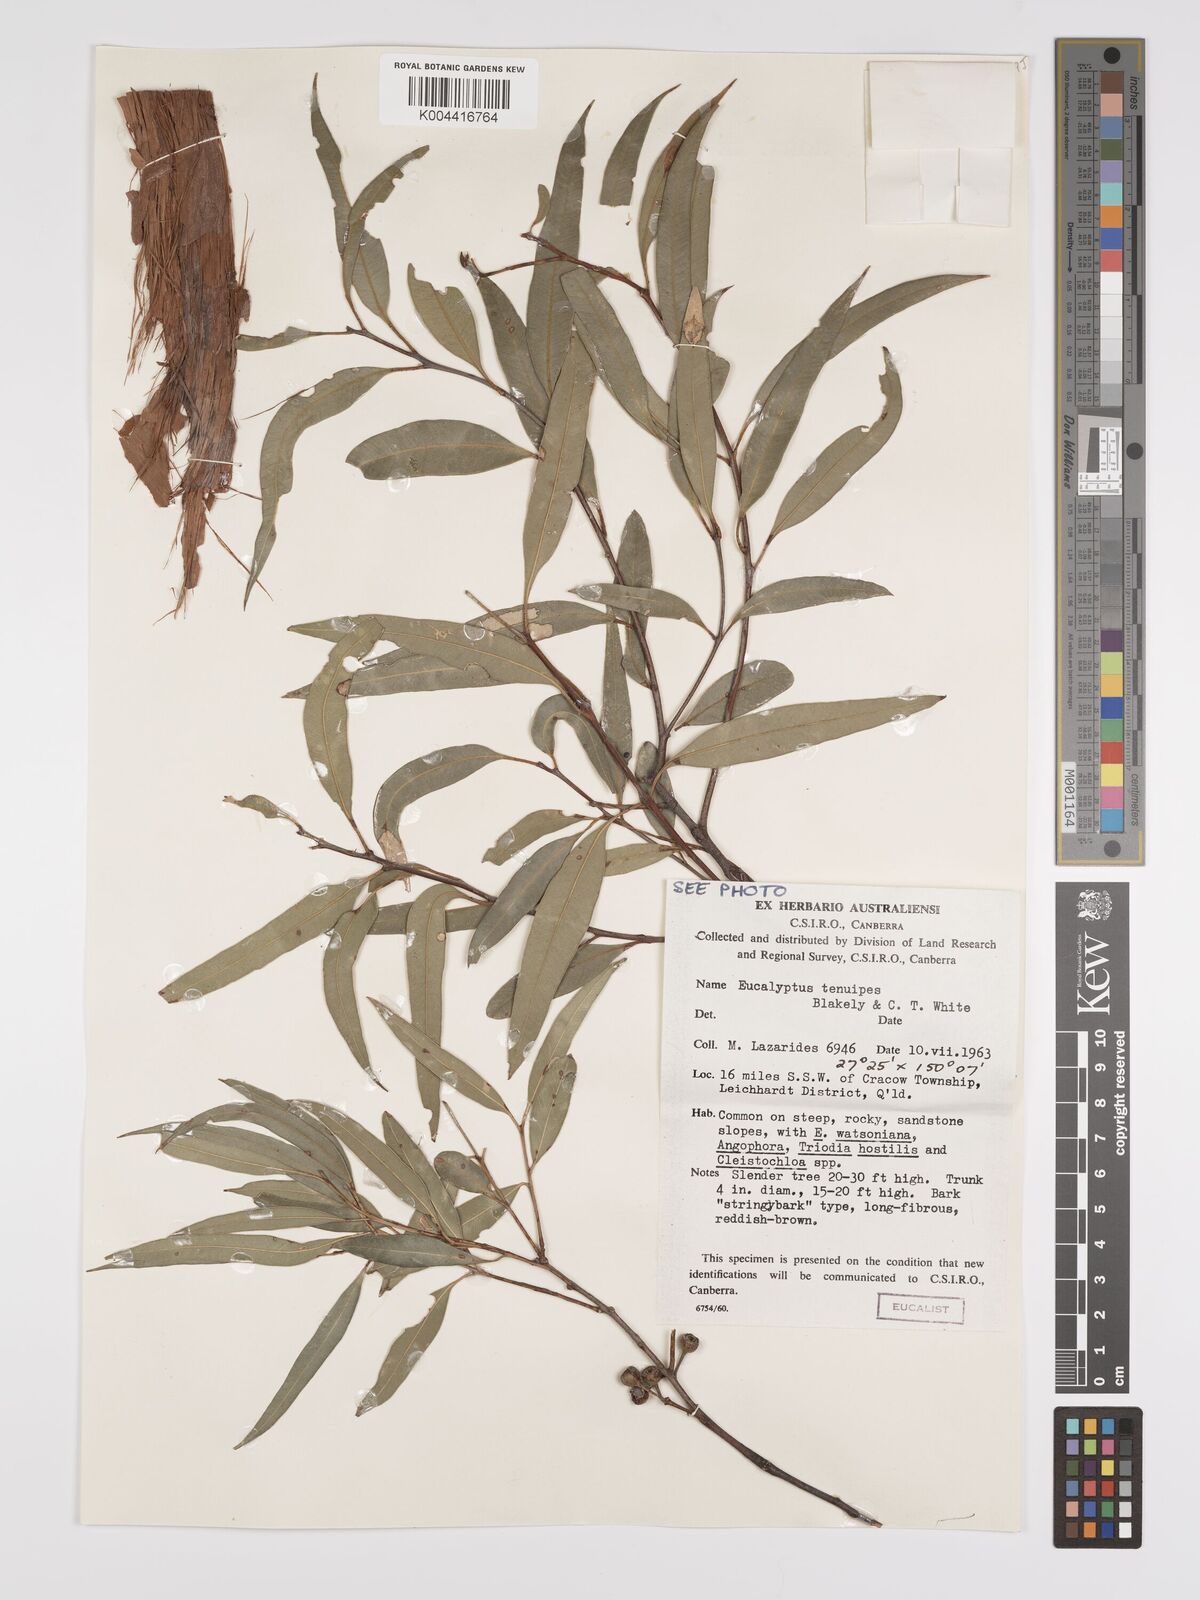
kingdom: Plantae
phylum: Tracheophyta
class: Magnoliopsida
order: Myrtales
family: Myrtaceae
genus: Eucalyptus
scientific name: Eucalyptus tenuipes
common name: Narrow-leaved white mahogany
